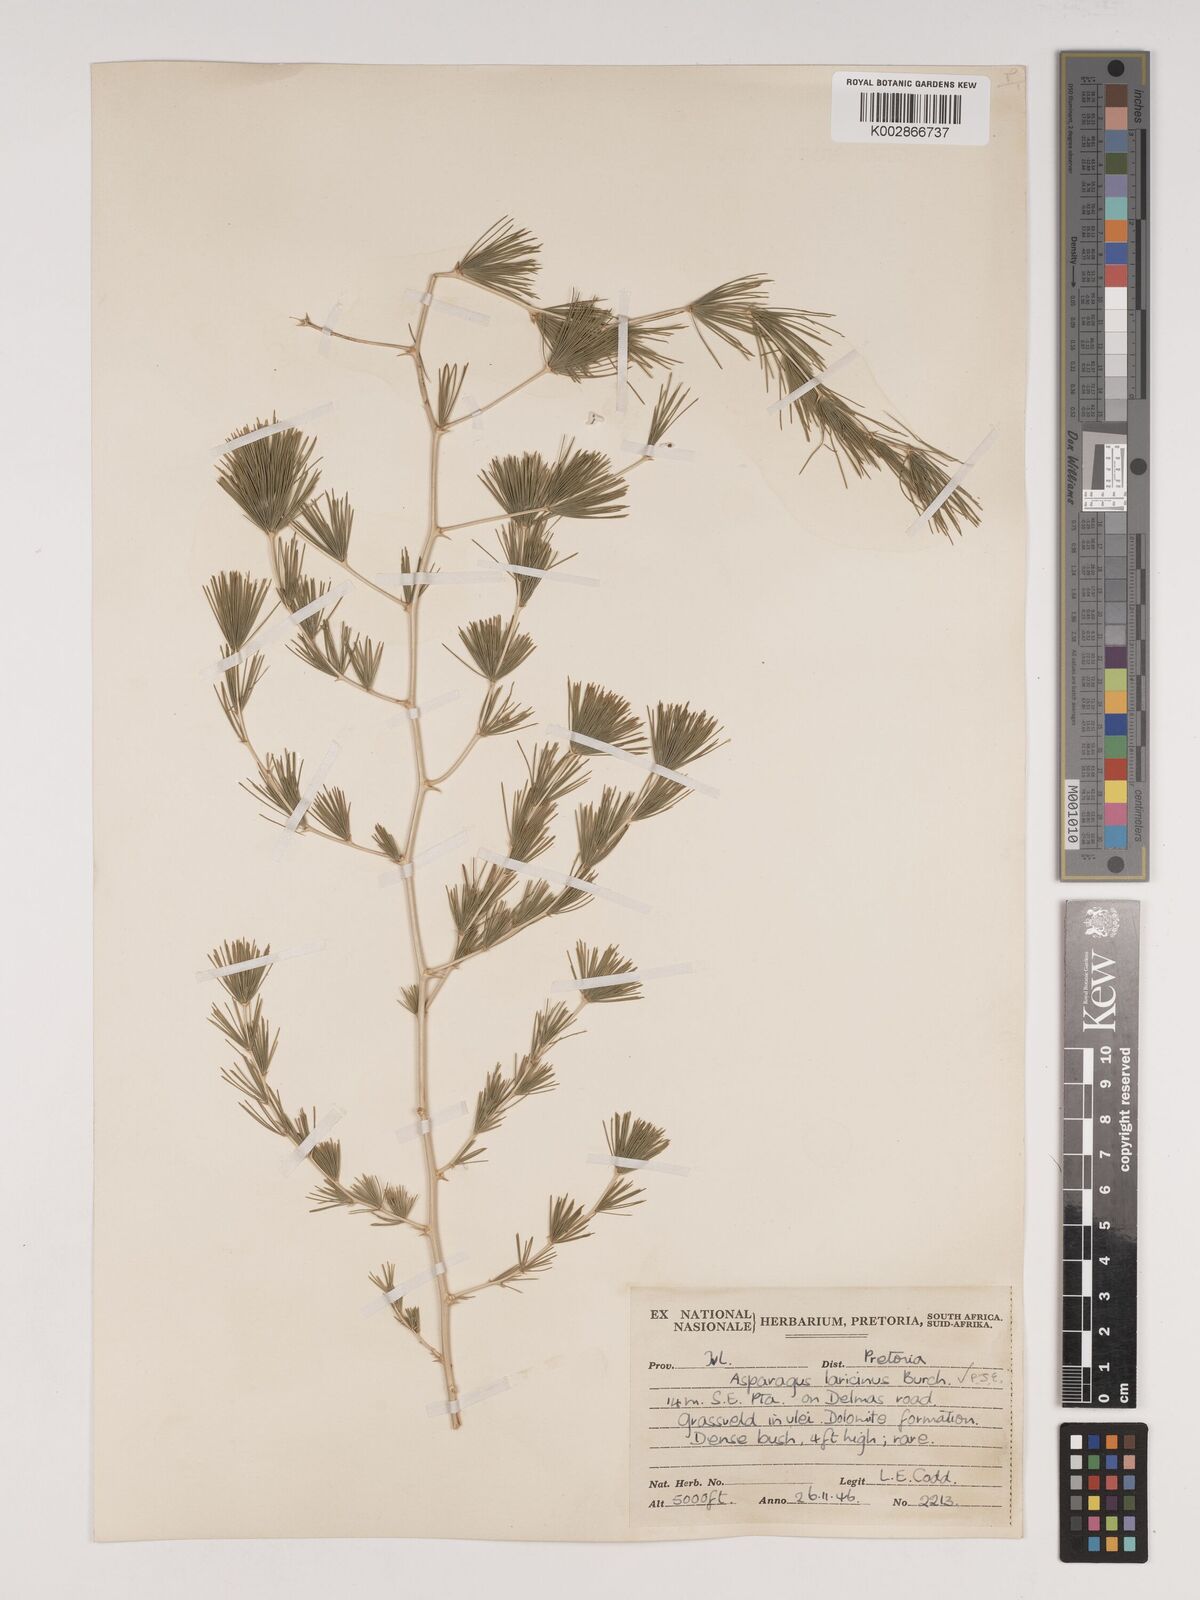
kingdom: Plantae
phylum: Tracheophyta
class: Liliopsida
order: Asparagales
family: Asparagaceae
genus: Asparagus
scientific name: Asparagus laricinus
